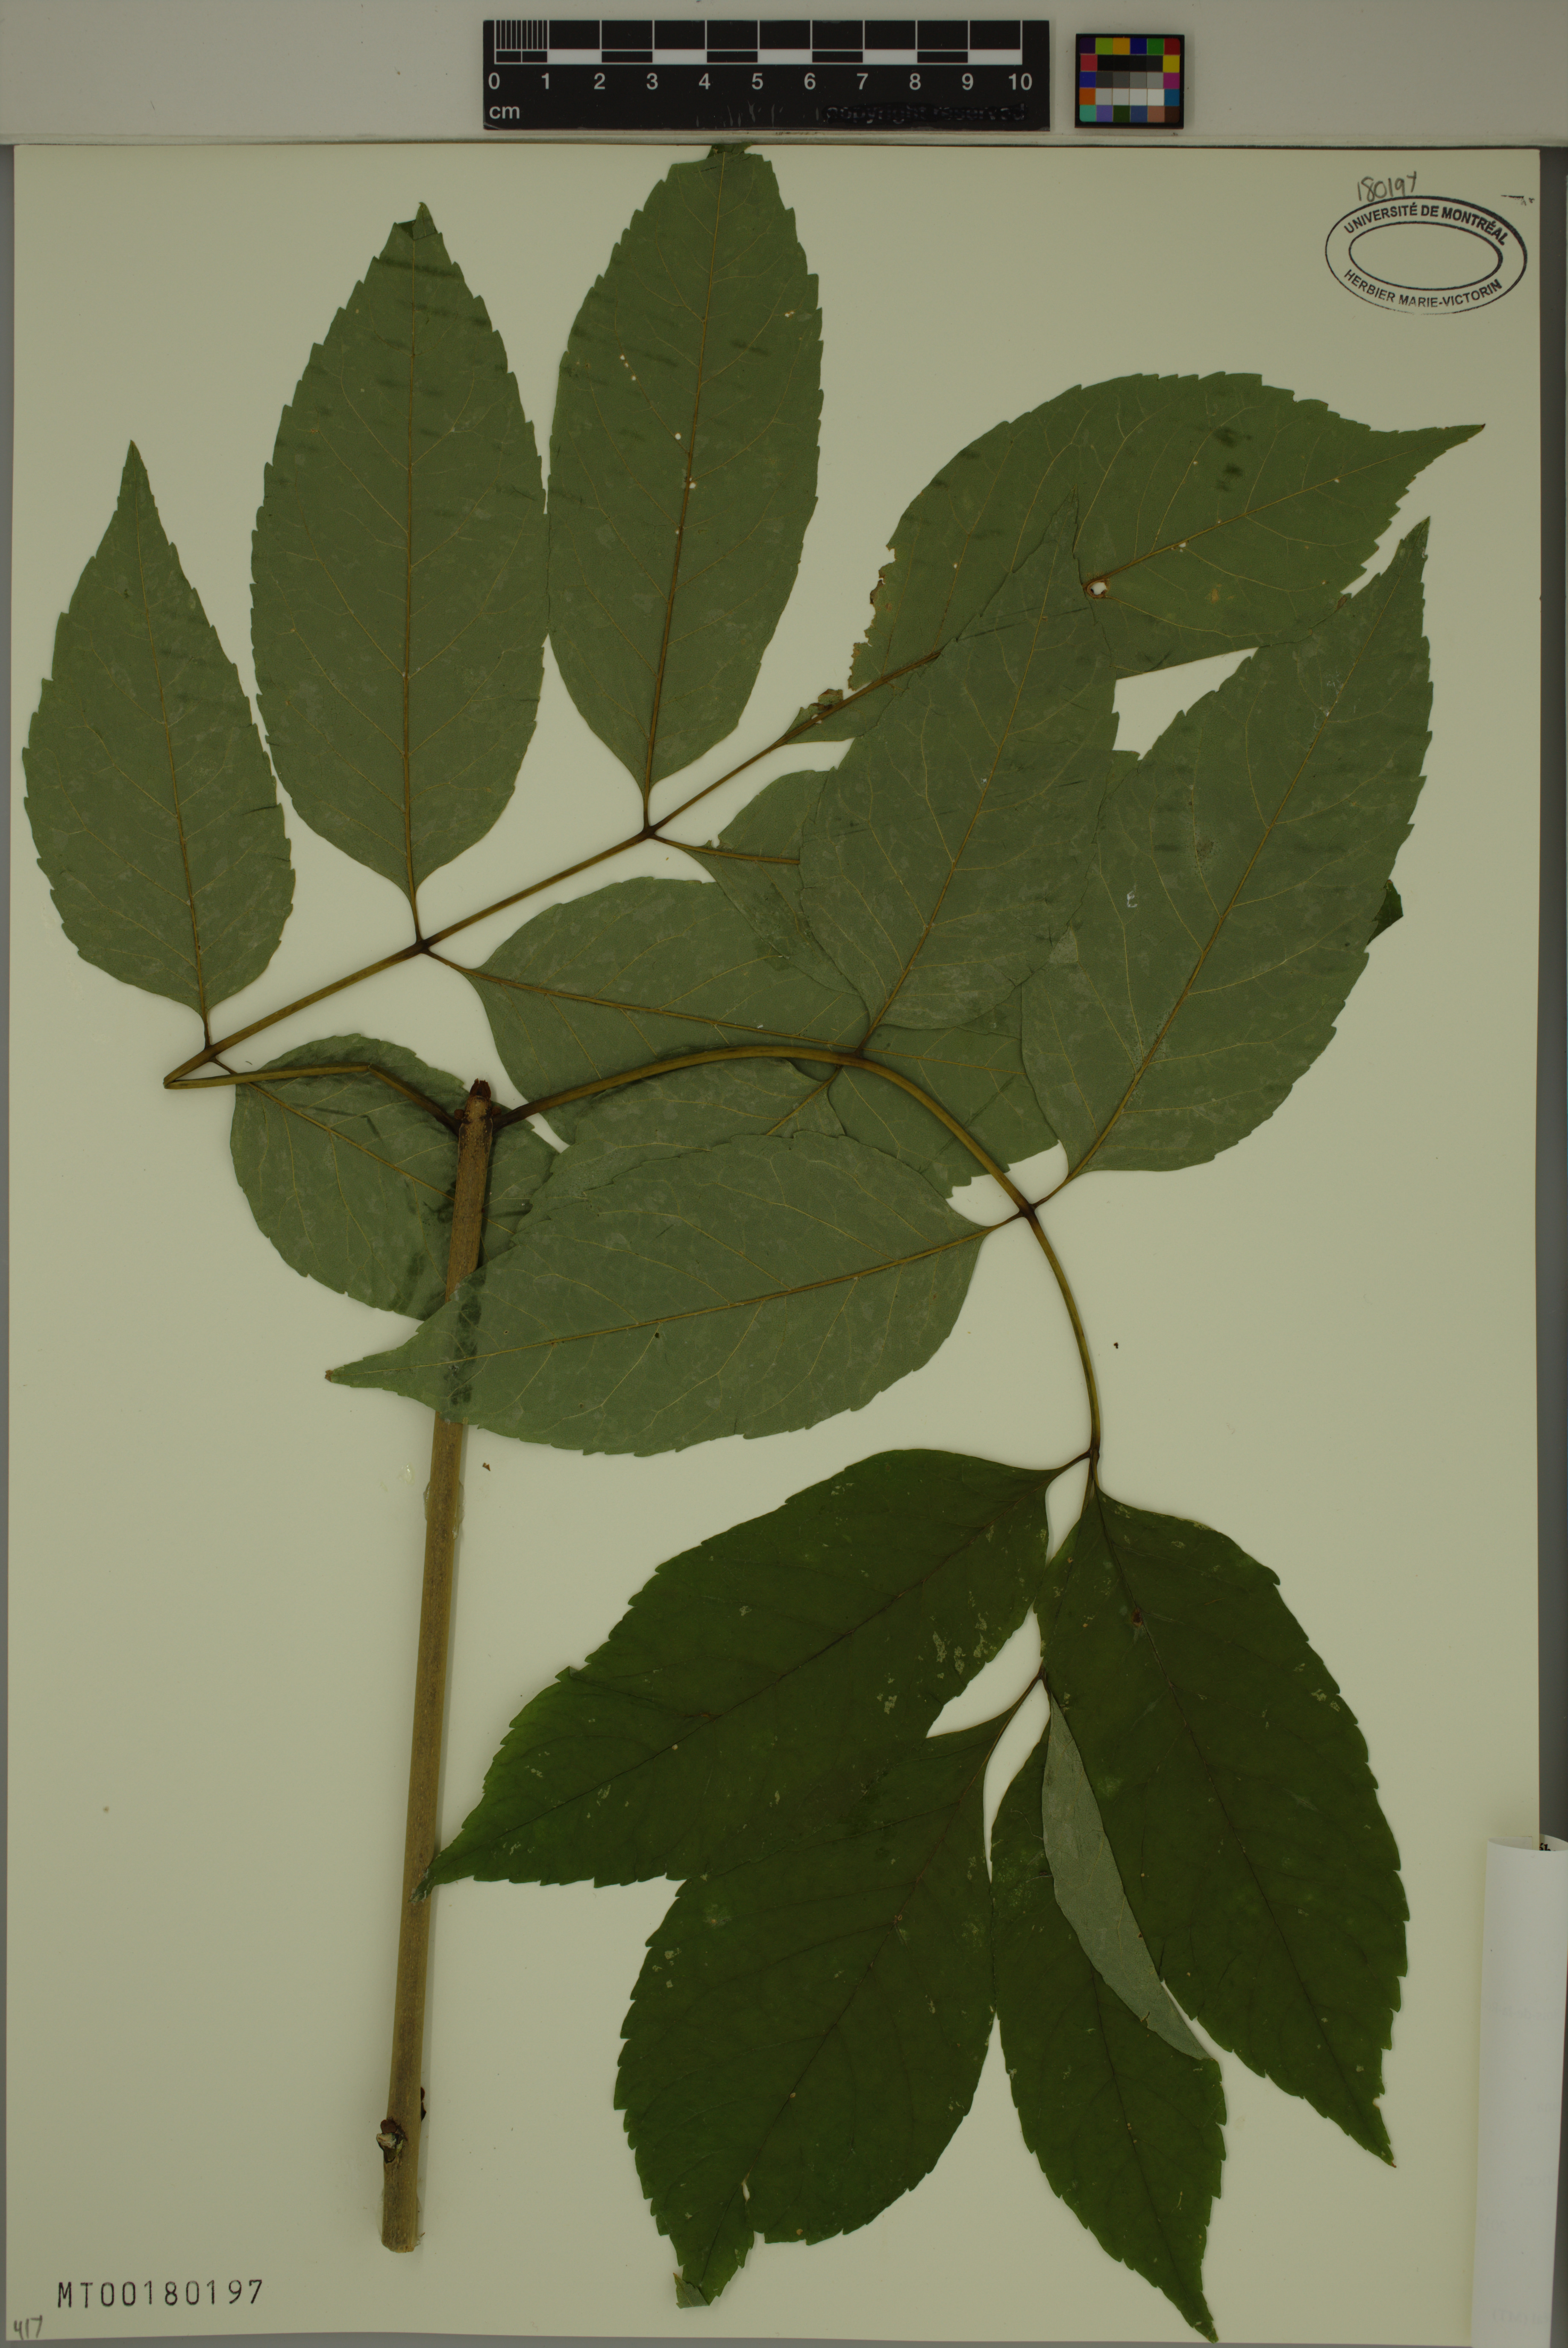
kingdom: Plantae
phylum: Tracheophyta
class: Magnoliopsida
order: Lamiales
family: Oleaceae
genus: Fraxinus
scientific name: Fraxinus americana
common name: White ash
